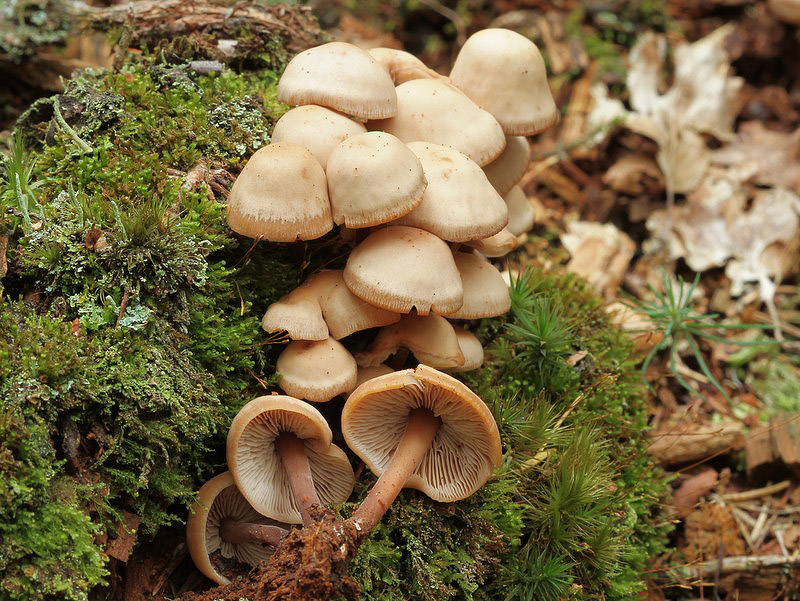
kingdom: Fungi
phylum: Basidiomycota
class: Agaricomycetes
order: Agaricales
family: Omphalotaceae
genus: Connopus
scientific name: Connopus acervatus
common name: tue-fladhat
